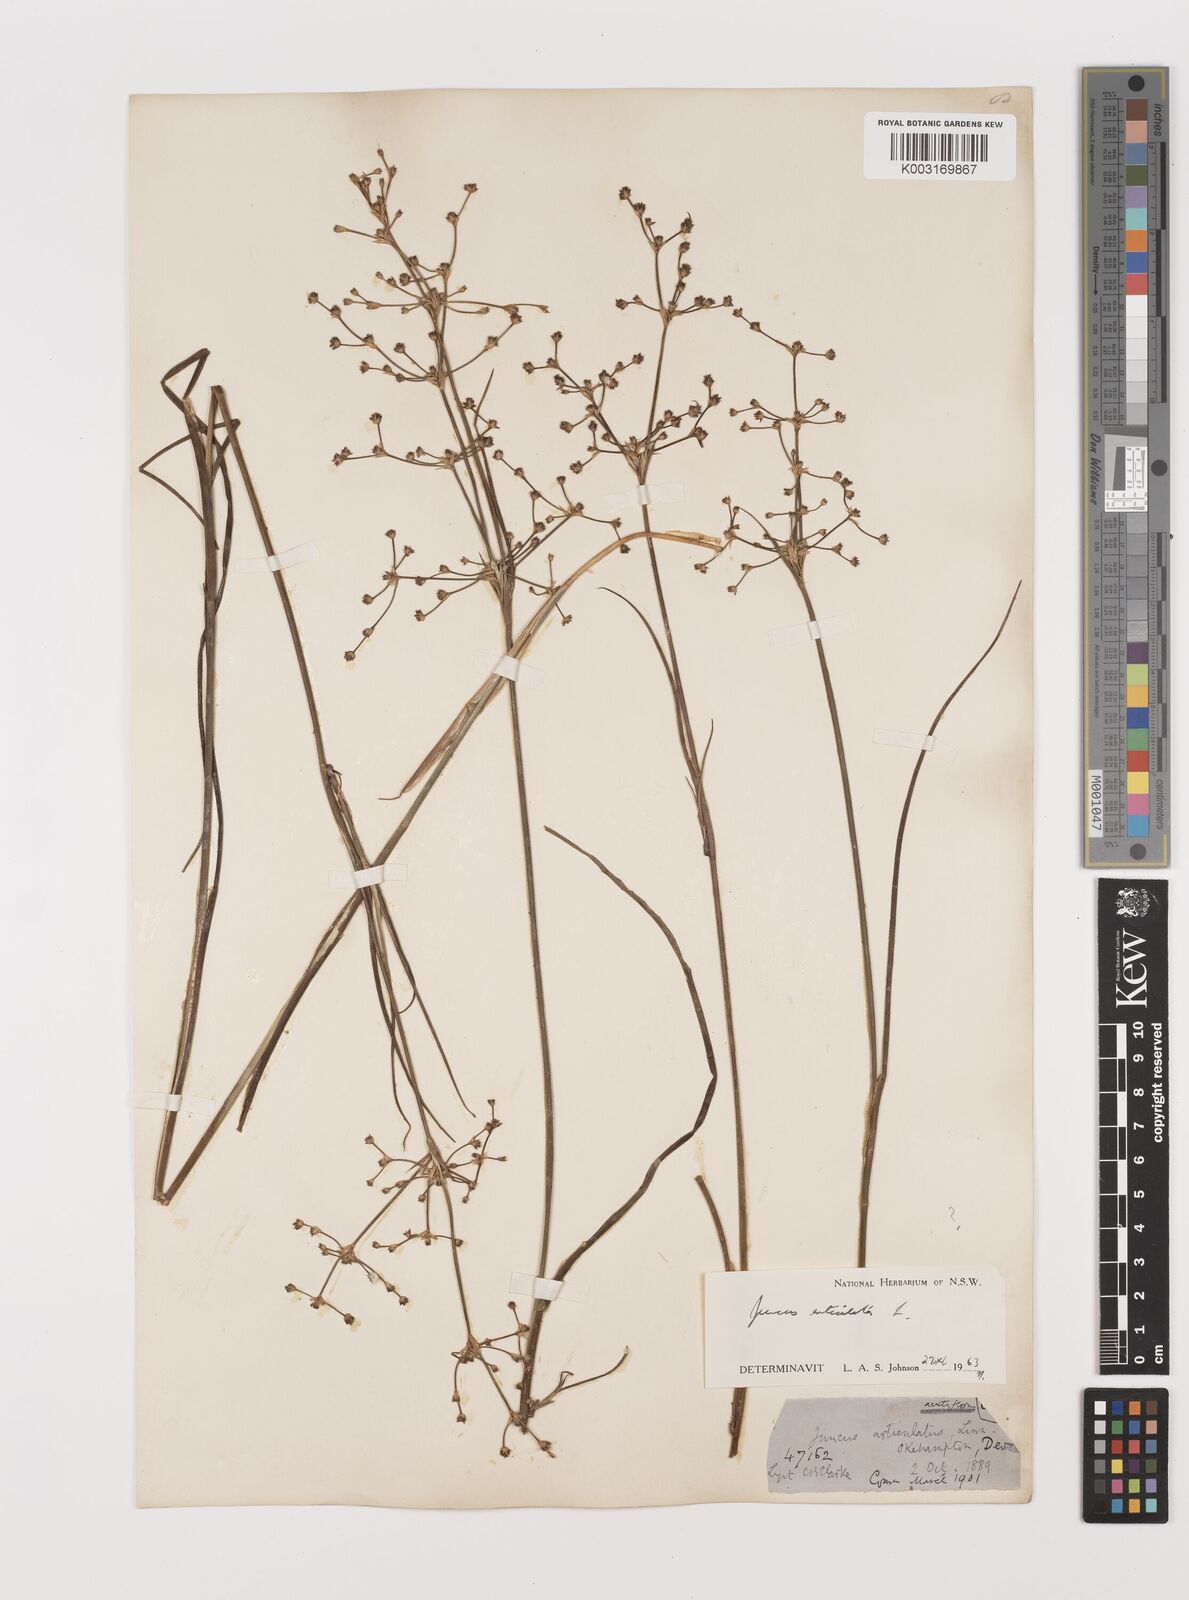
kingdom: Plantae
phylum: Tracheophyta
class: Liliopsida
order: Poales
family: Juncaceae
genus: Juncus
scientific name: Juncus articulatus
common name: Jointed rush
